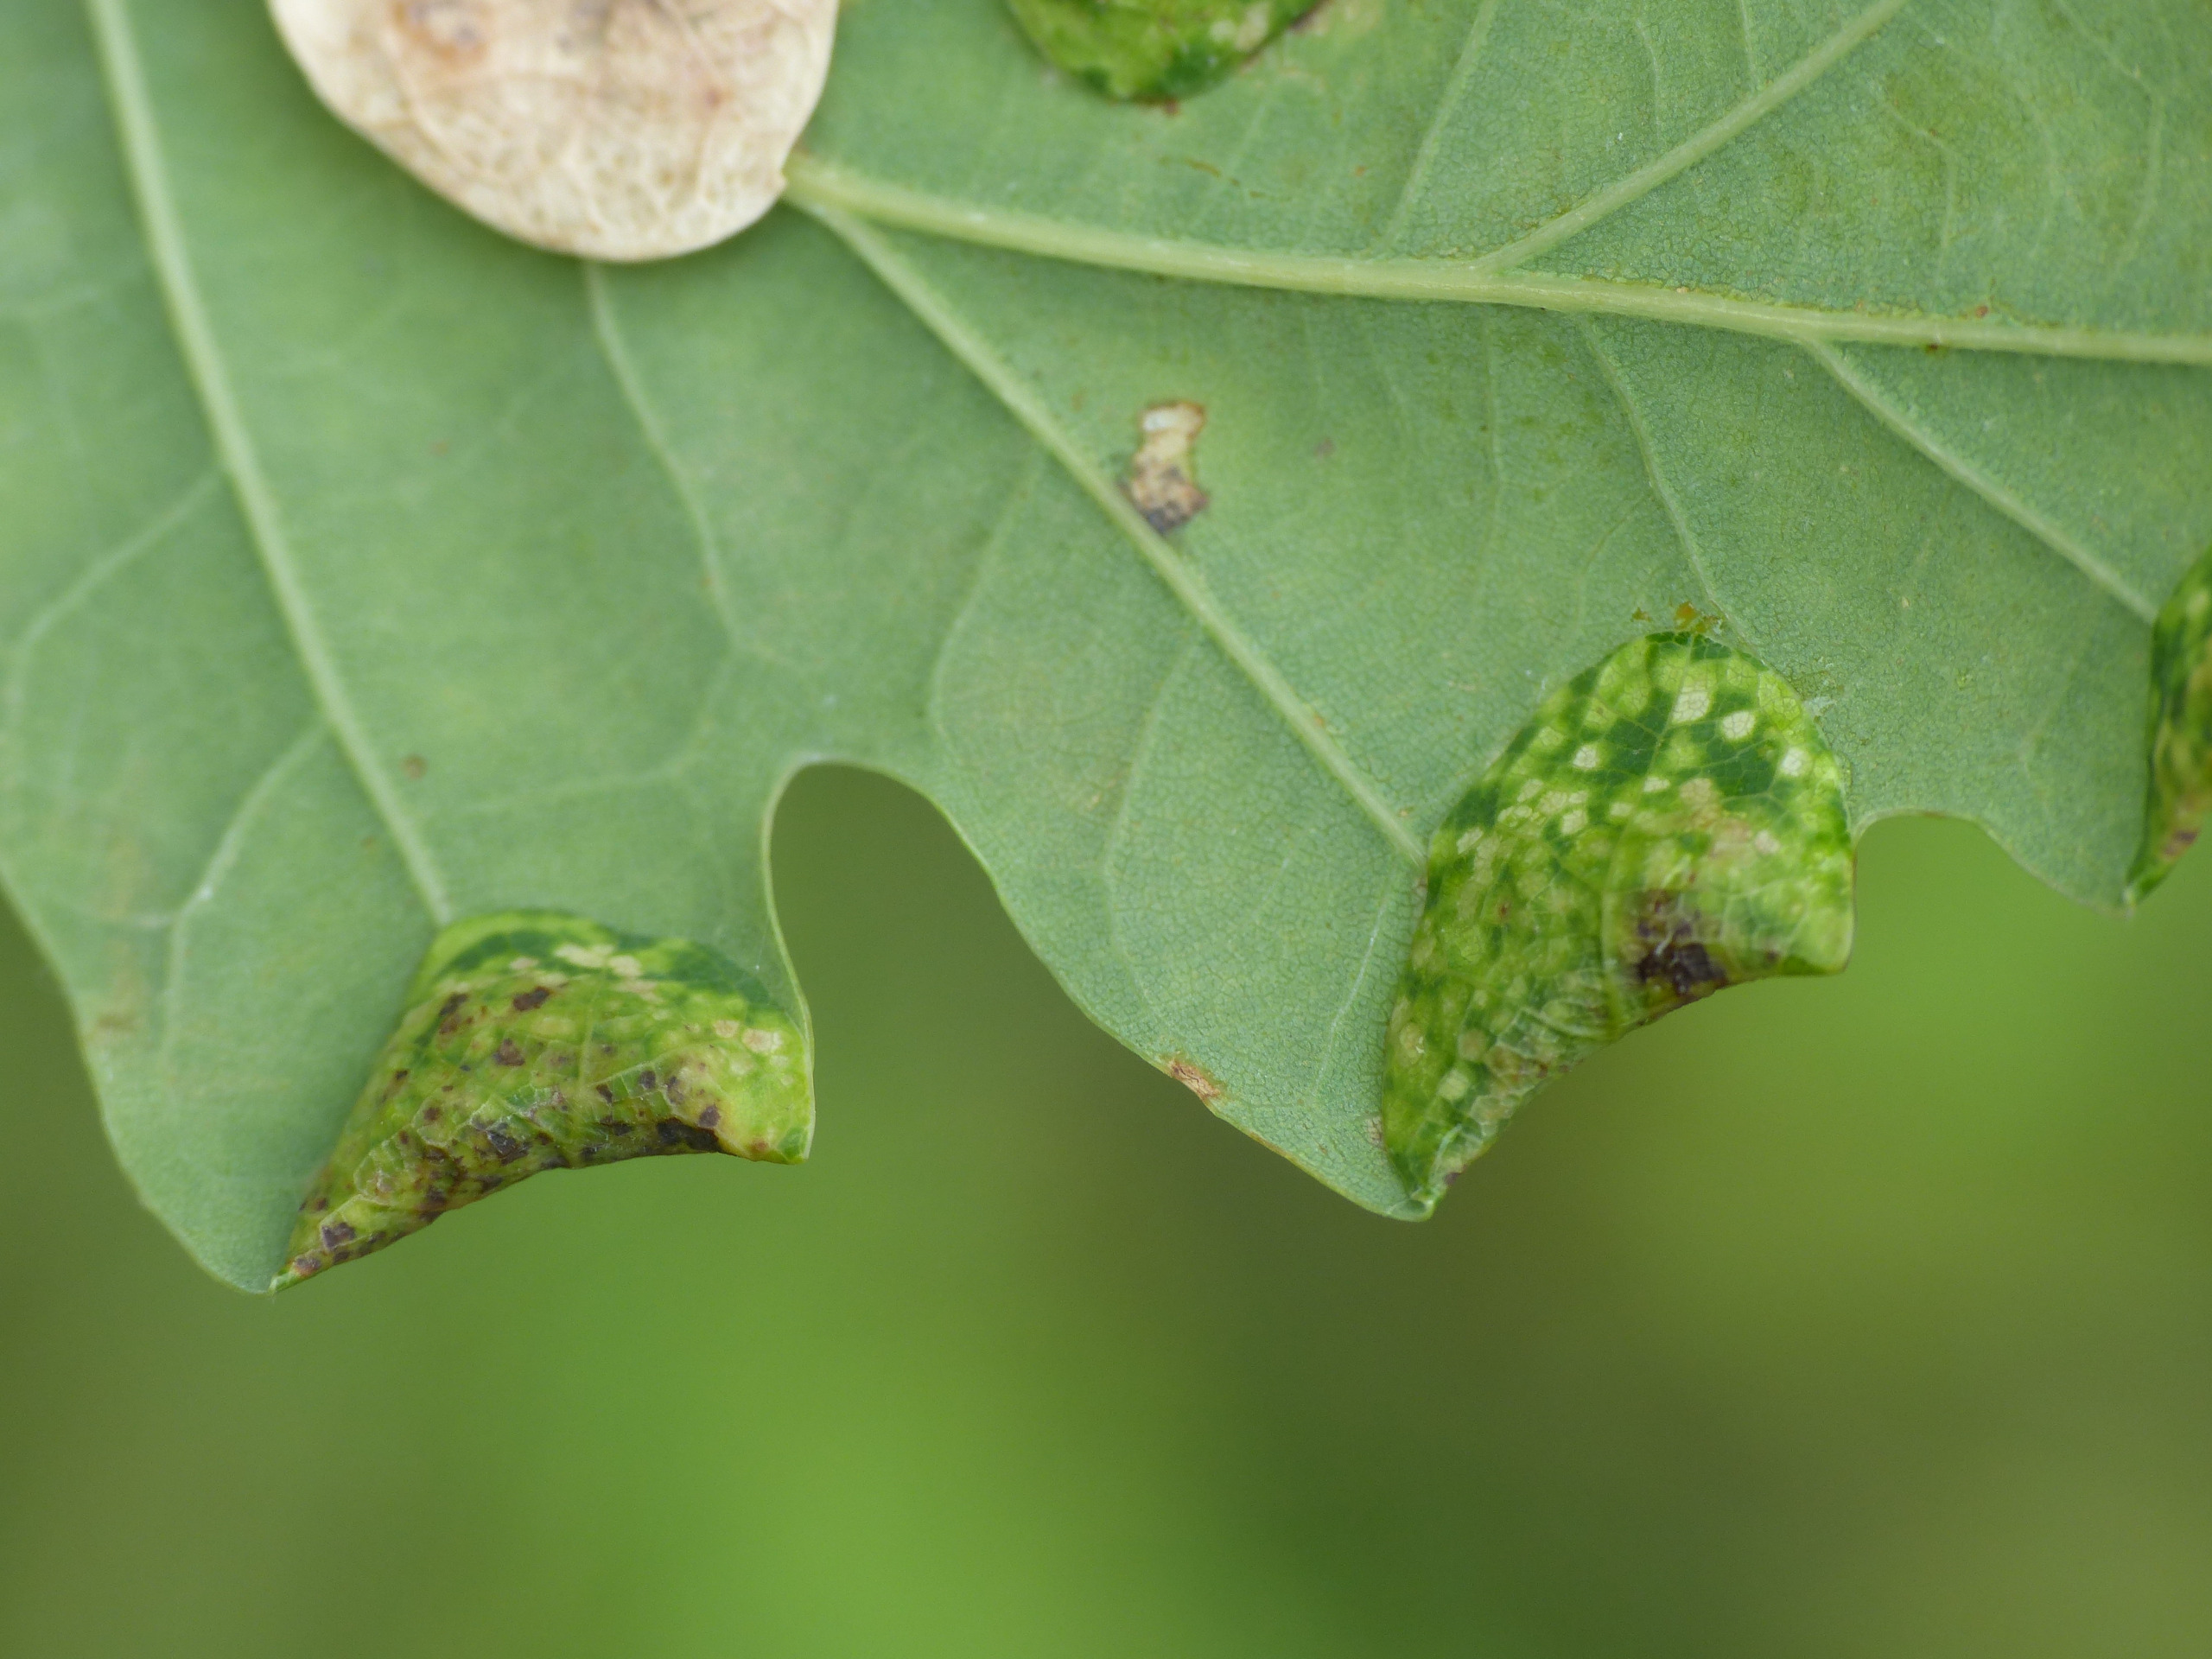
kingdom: Animalia
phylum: Arthropoda
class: Insecta
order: Diptera
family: Cecidomyiidae
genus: Macrodiplosis
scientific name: Macrodiplosis pustularis
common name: Marmorgalmyg
